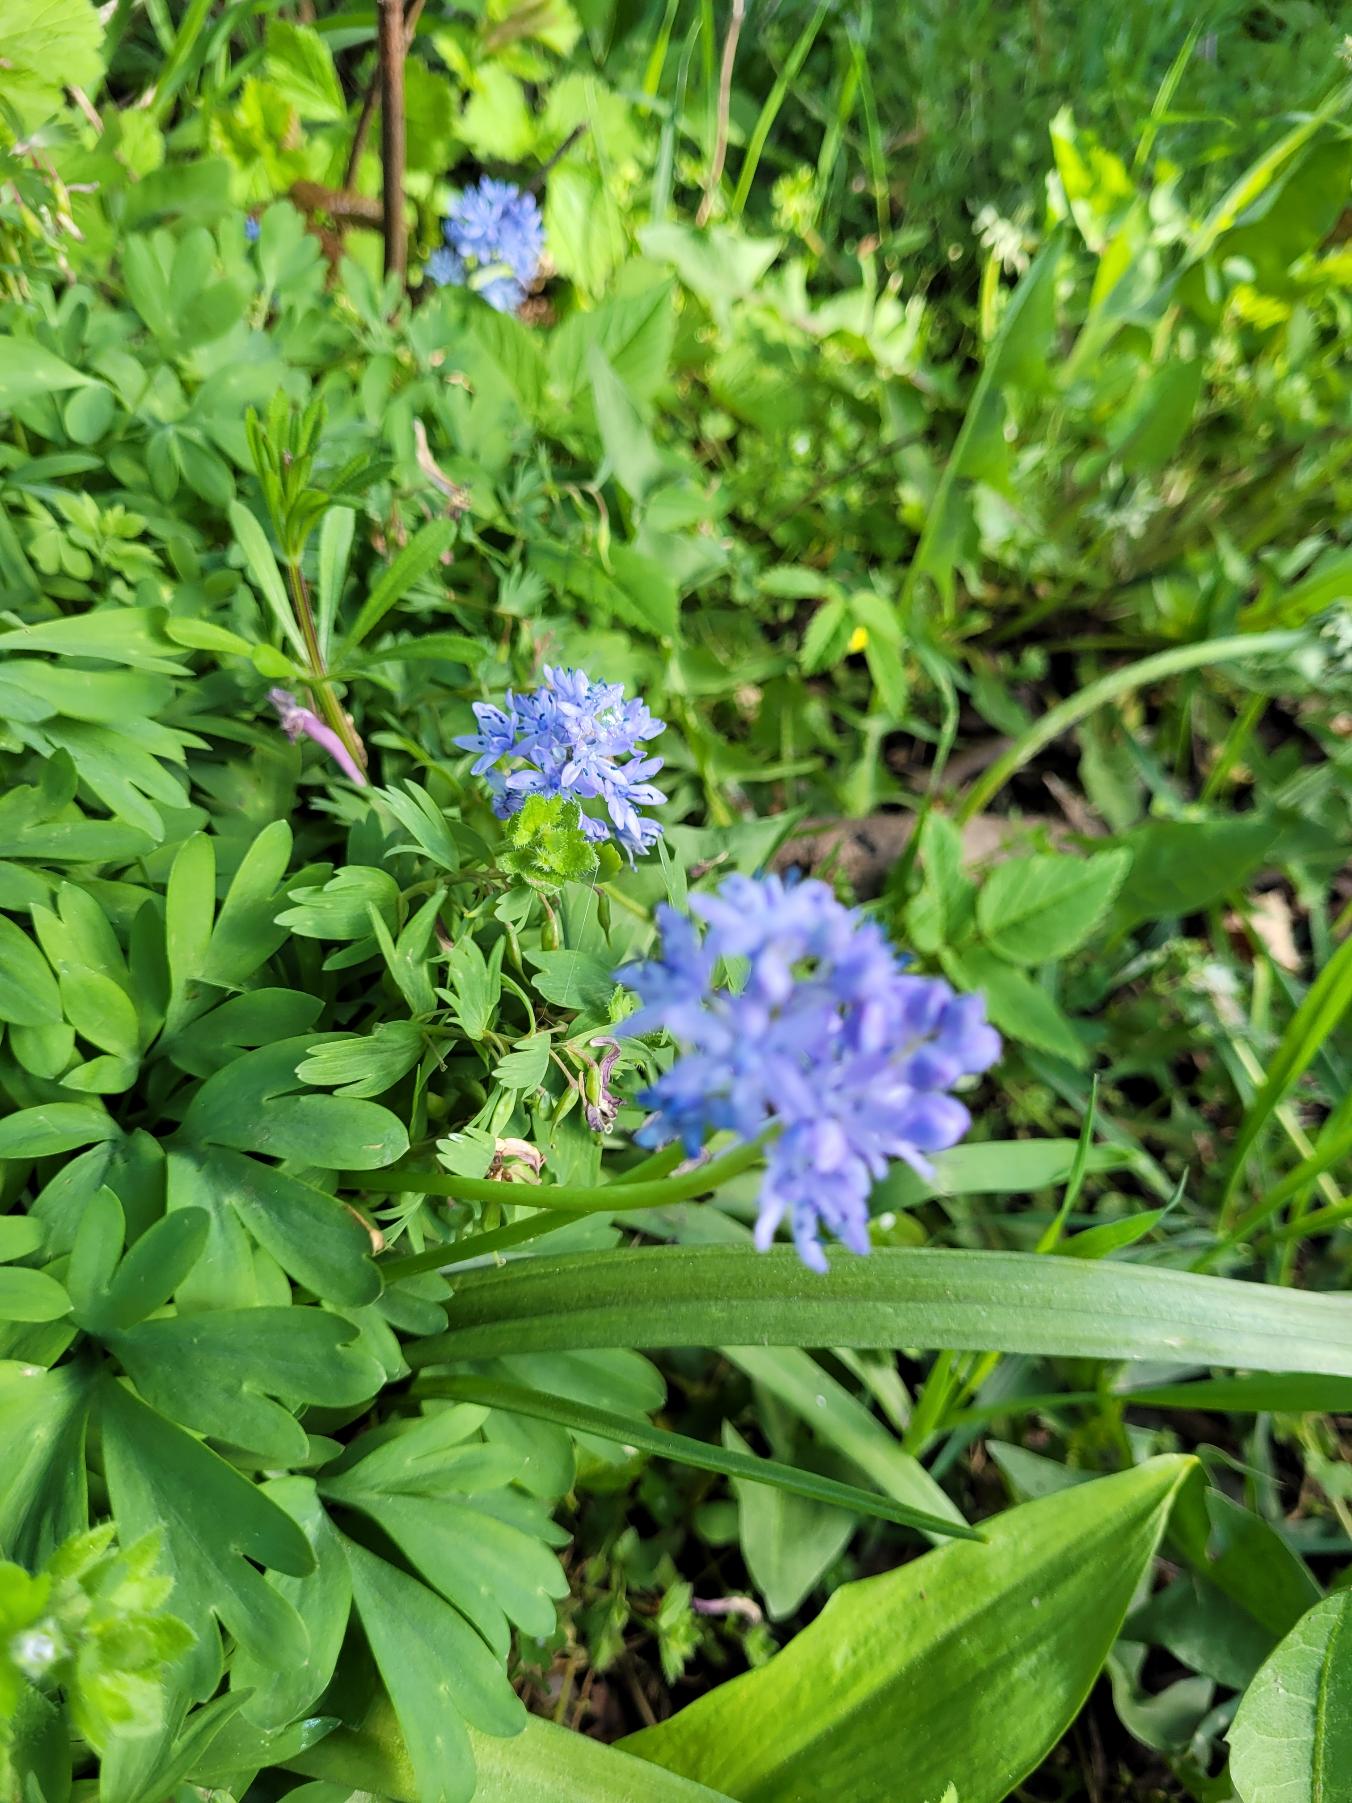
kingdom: Plantae
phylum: Tracheophyta
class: Liliopsida
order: Asparagales
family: Asparagaceae
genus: Hyacinthoides
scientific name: Hyacinthoides italica
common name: Italiensk skilla
